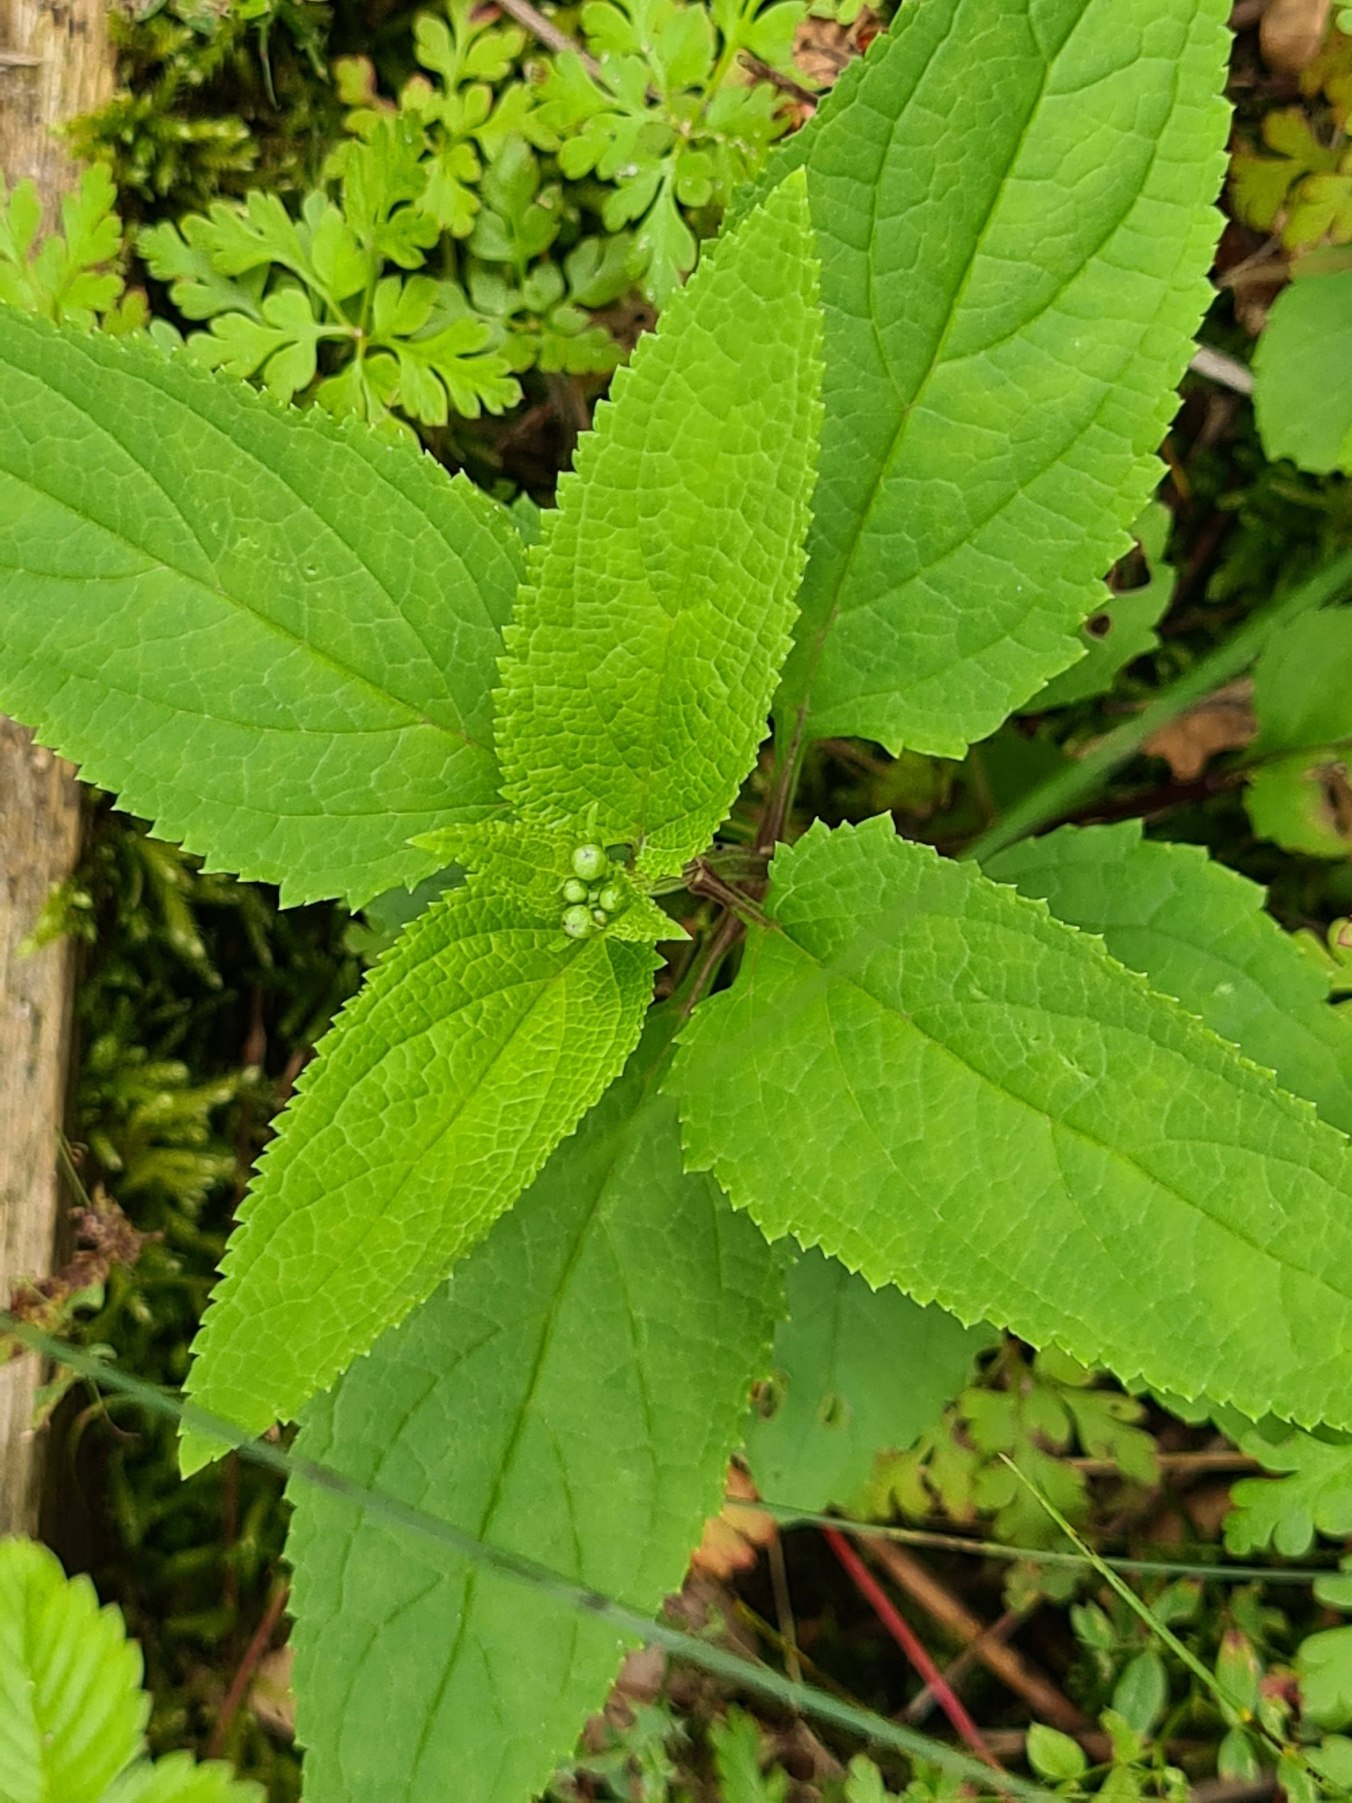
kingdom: Plantae
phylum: Tracheophyta
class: Magnoliopsida
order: Lamiales
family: Scrophulariaceae
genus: Scrophularia
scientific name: Scrophularia nodosa
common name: Knoldet brunrod
